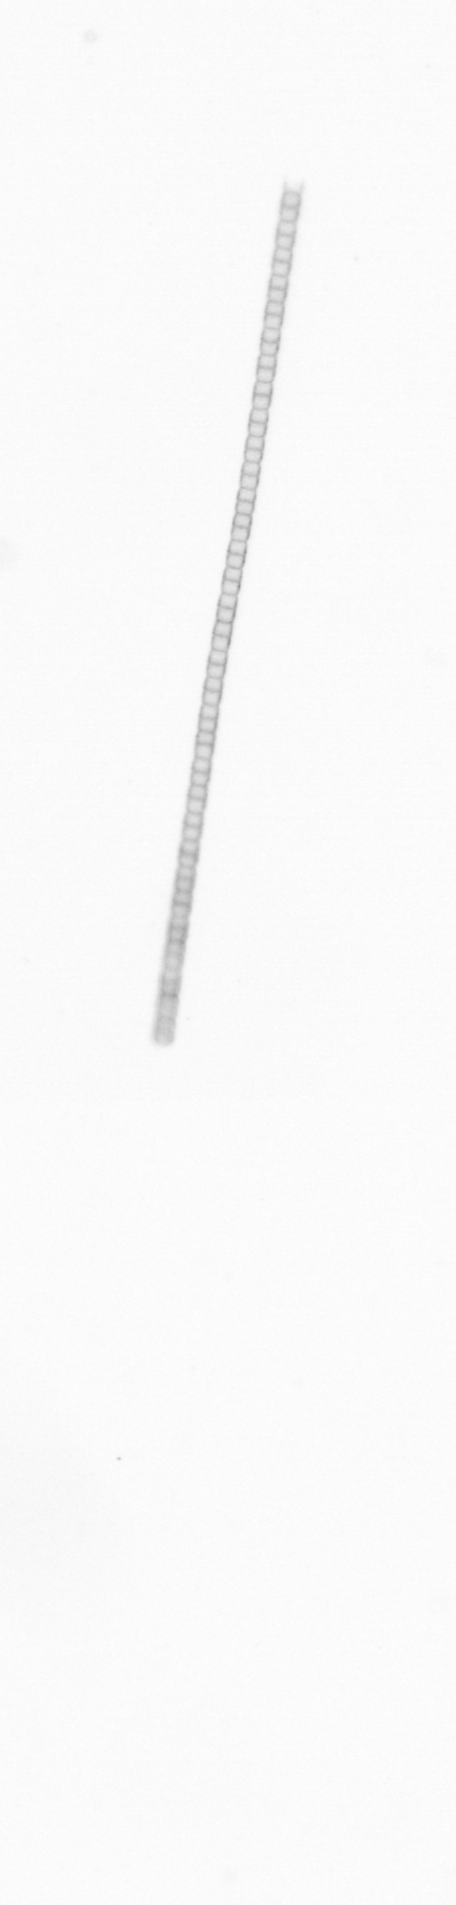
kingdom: Chromista
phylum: Ochrophyta
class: Bacillariophyceae
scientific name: Bacillariophyceae
